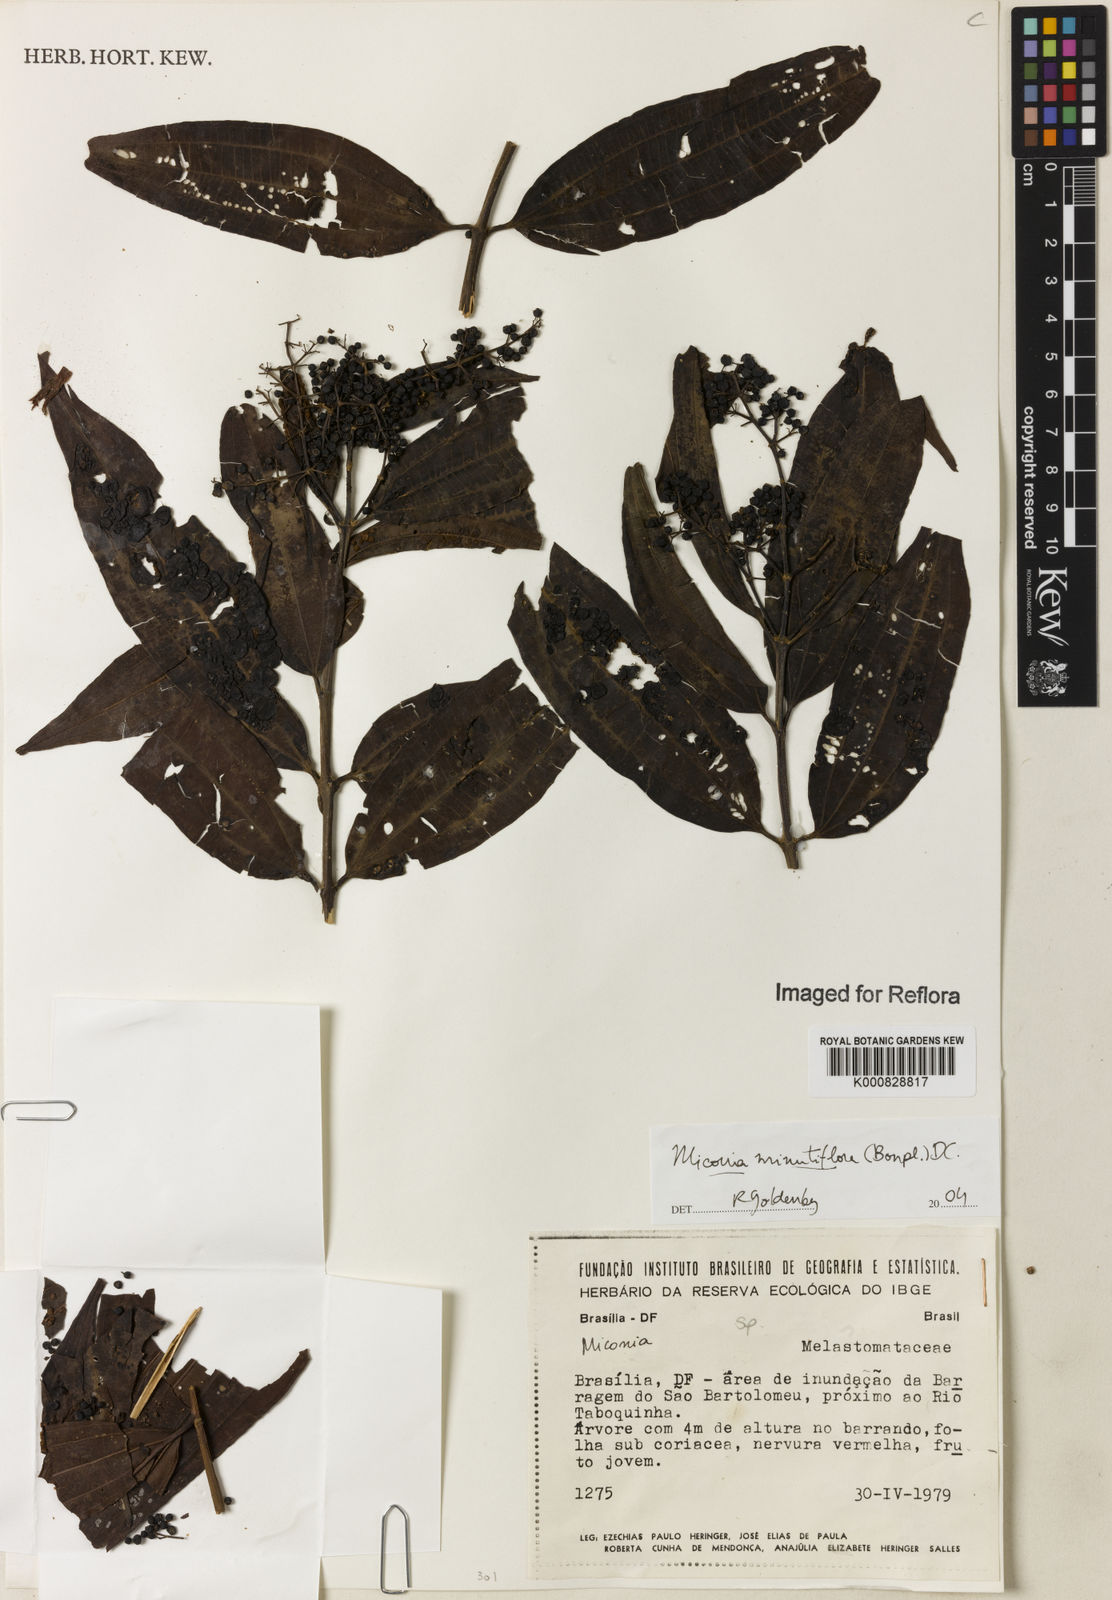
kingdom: Plantae
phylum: Tracheophyta
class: Magnoliopsida
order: Myrtales
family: Melastomataceae
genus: Miconia
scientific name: Miconia minutiflora
